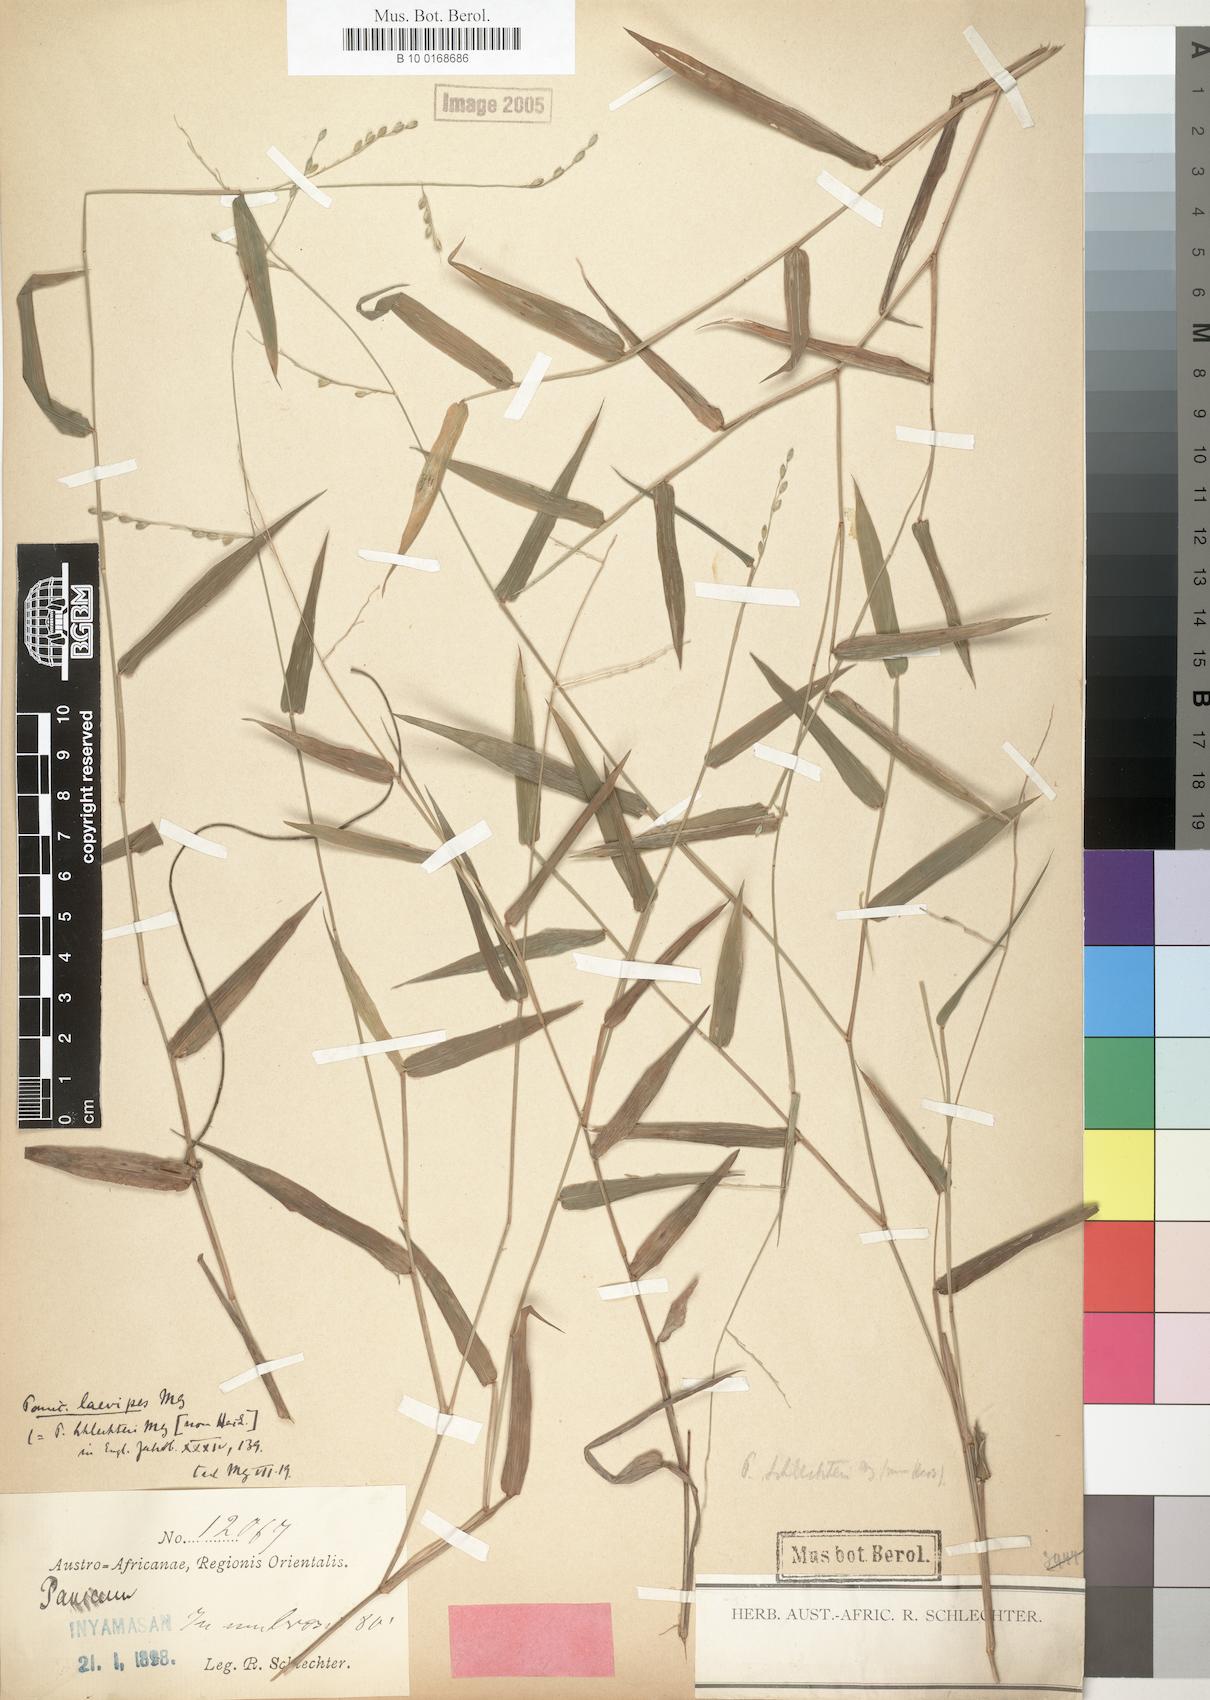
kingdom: Plantae
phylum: Tracheophyta
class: Liliopsida
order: Poales
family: Poaceae
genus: Urochloa
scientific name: Urochloa chusqueoides
